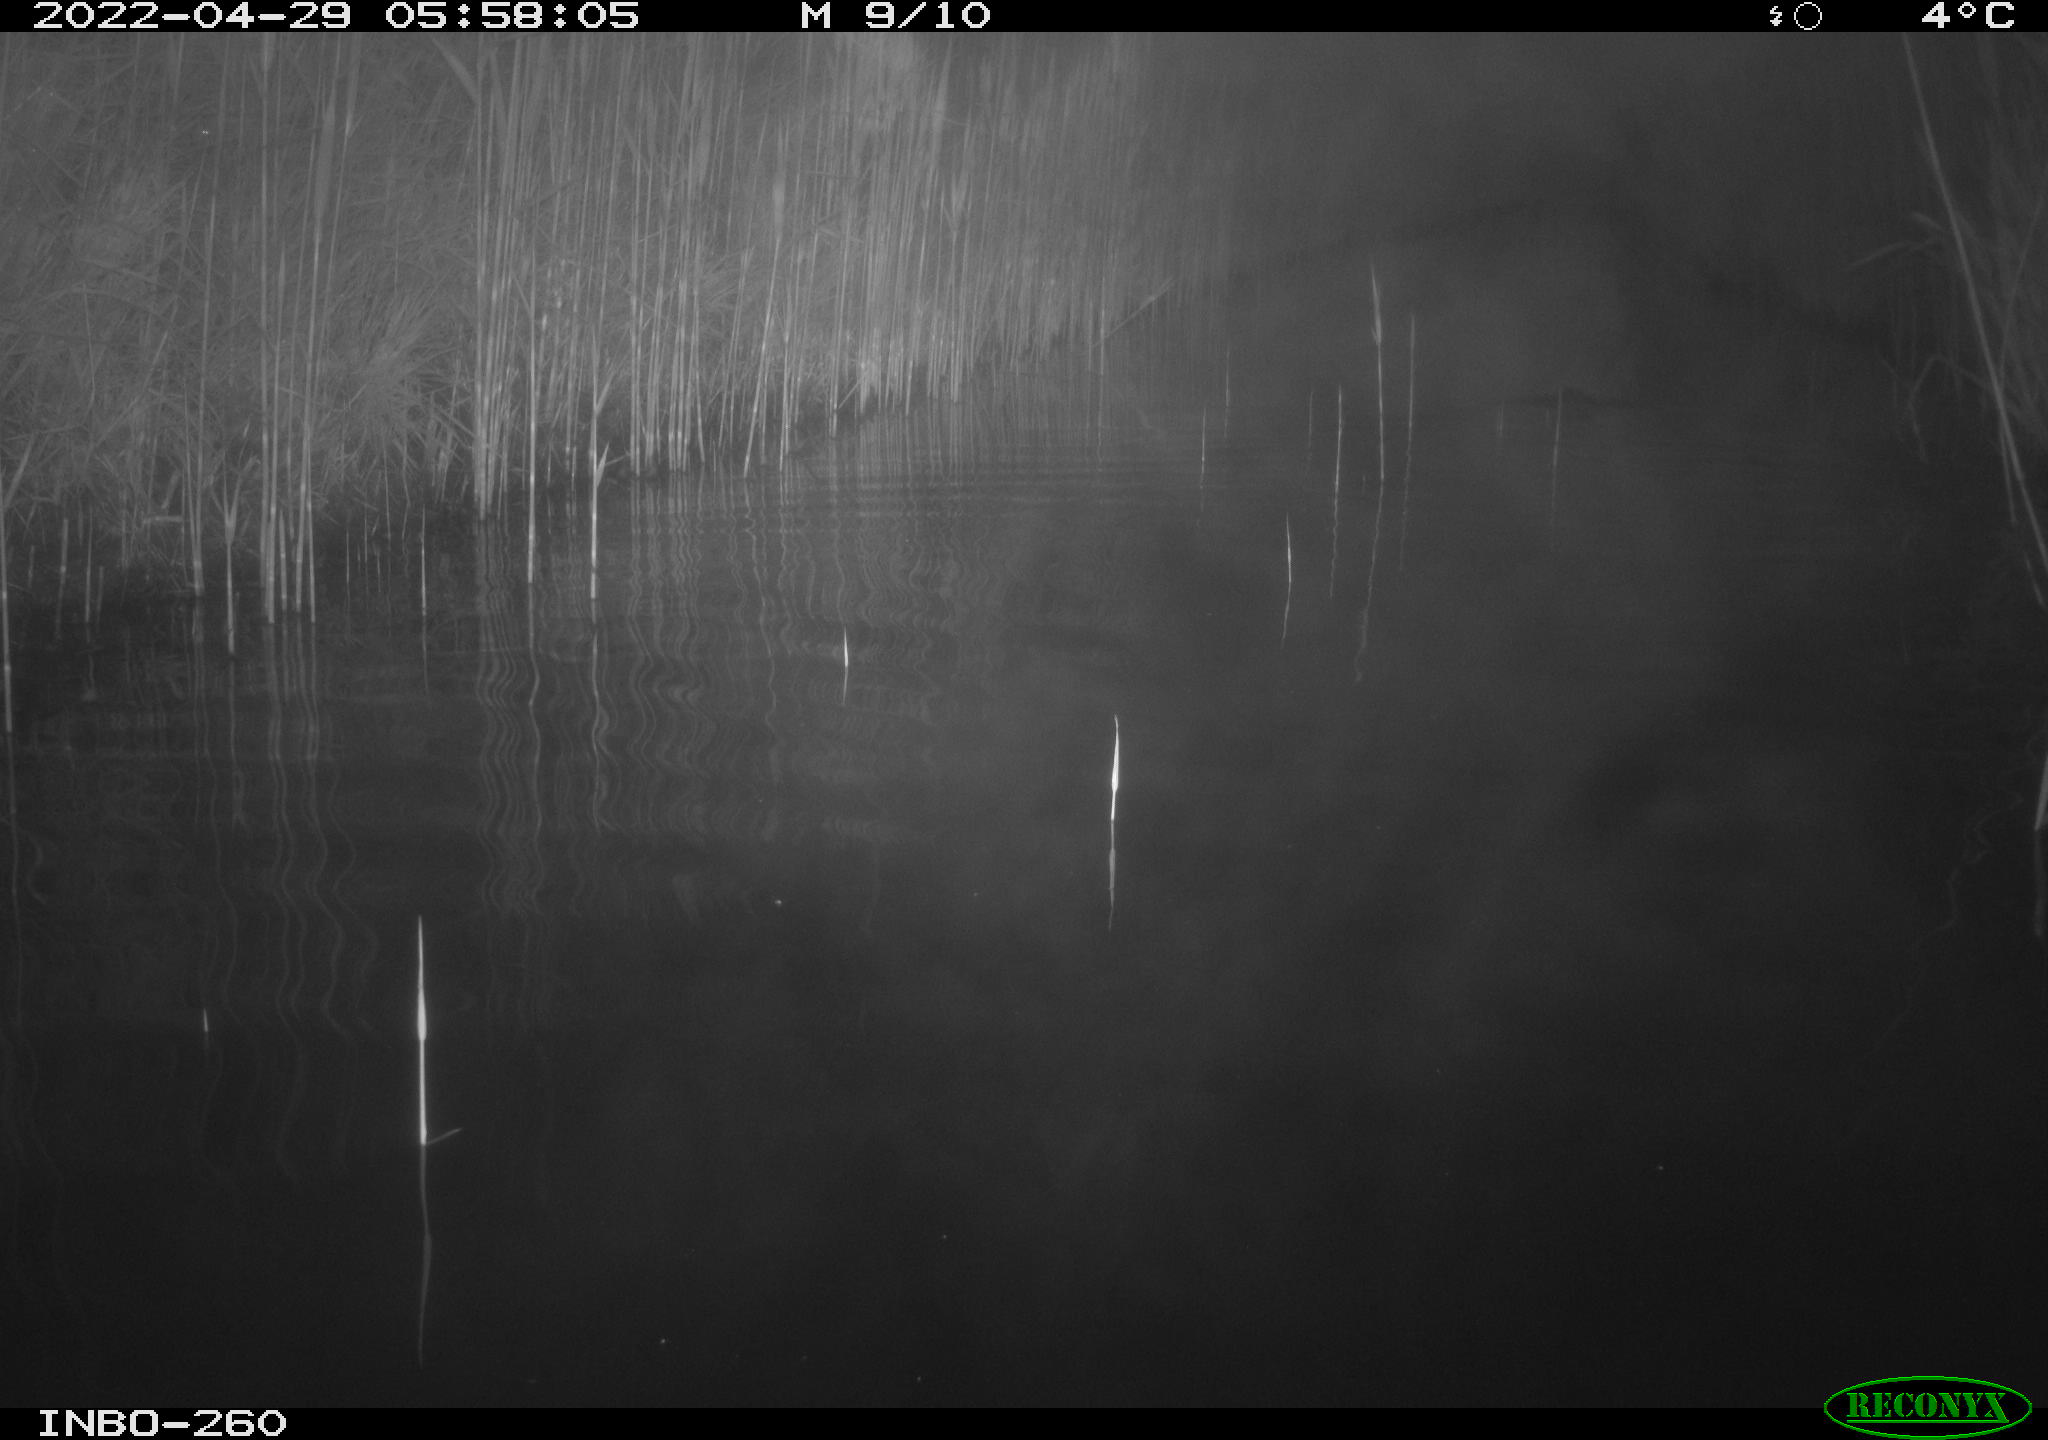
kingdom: Animalia
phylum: Chordata
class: Mammalia
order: Rodentia
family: Cricetidae
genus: Ondatra
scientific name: Ondatra zibethicus
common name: Muskrat
